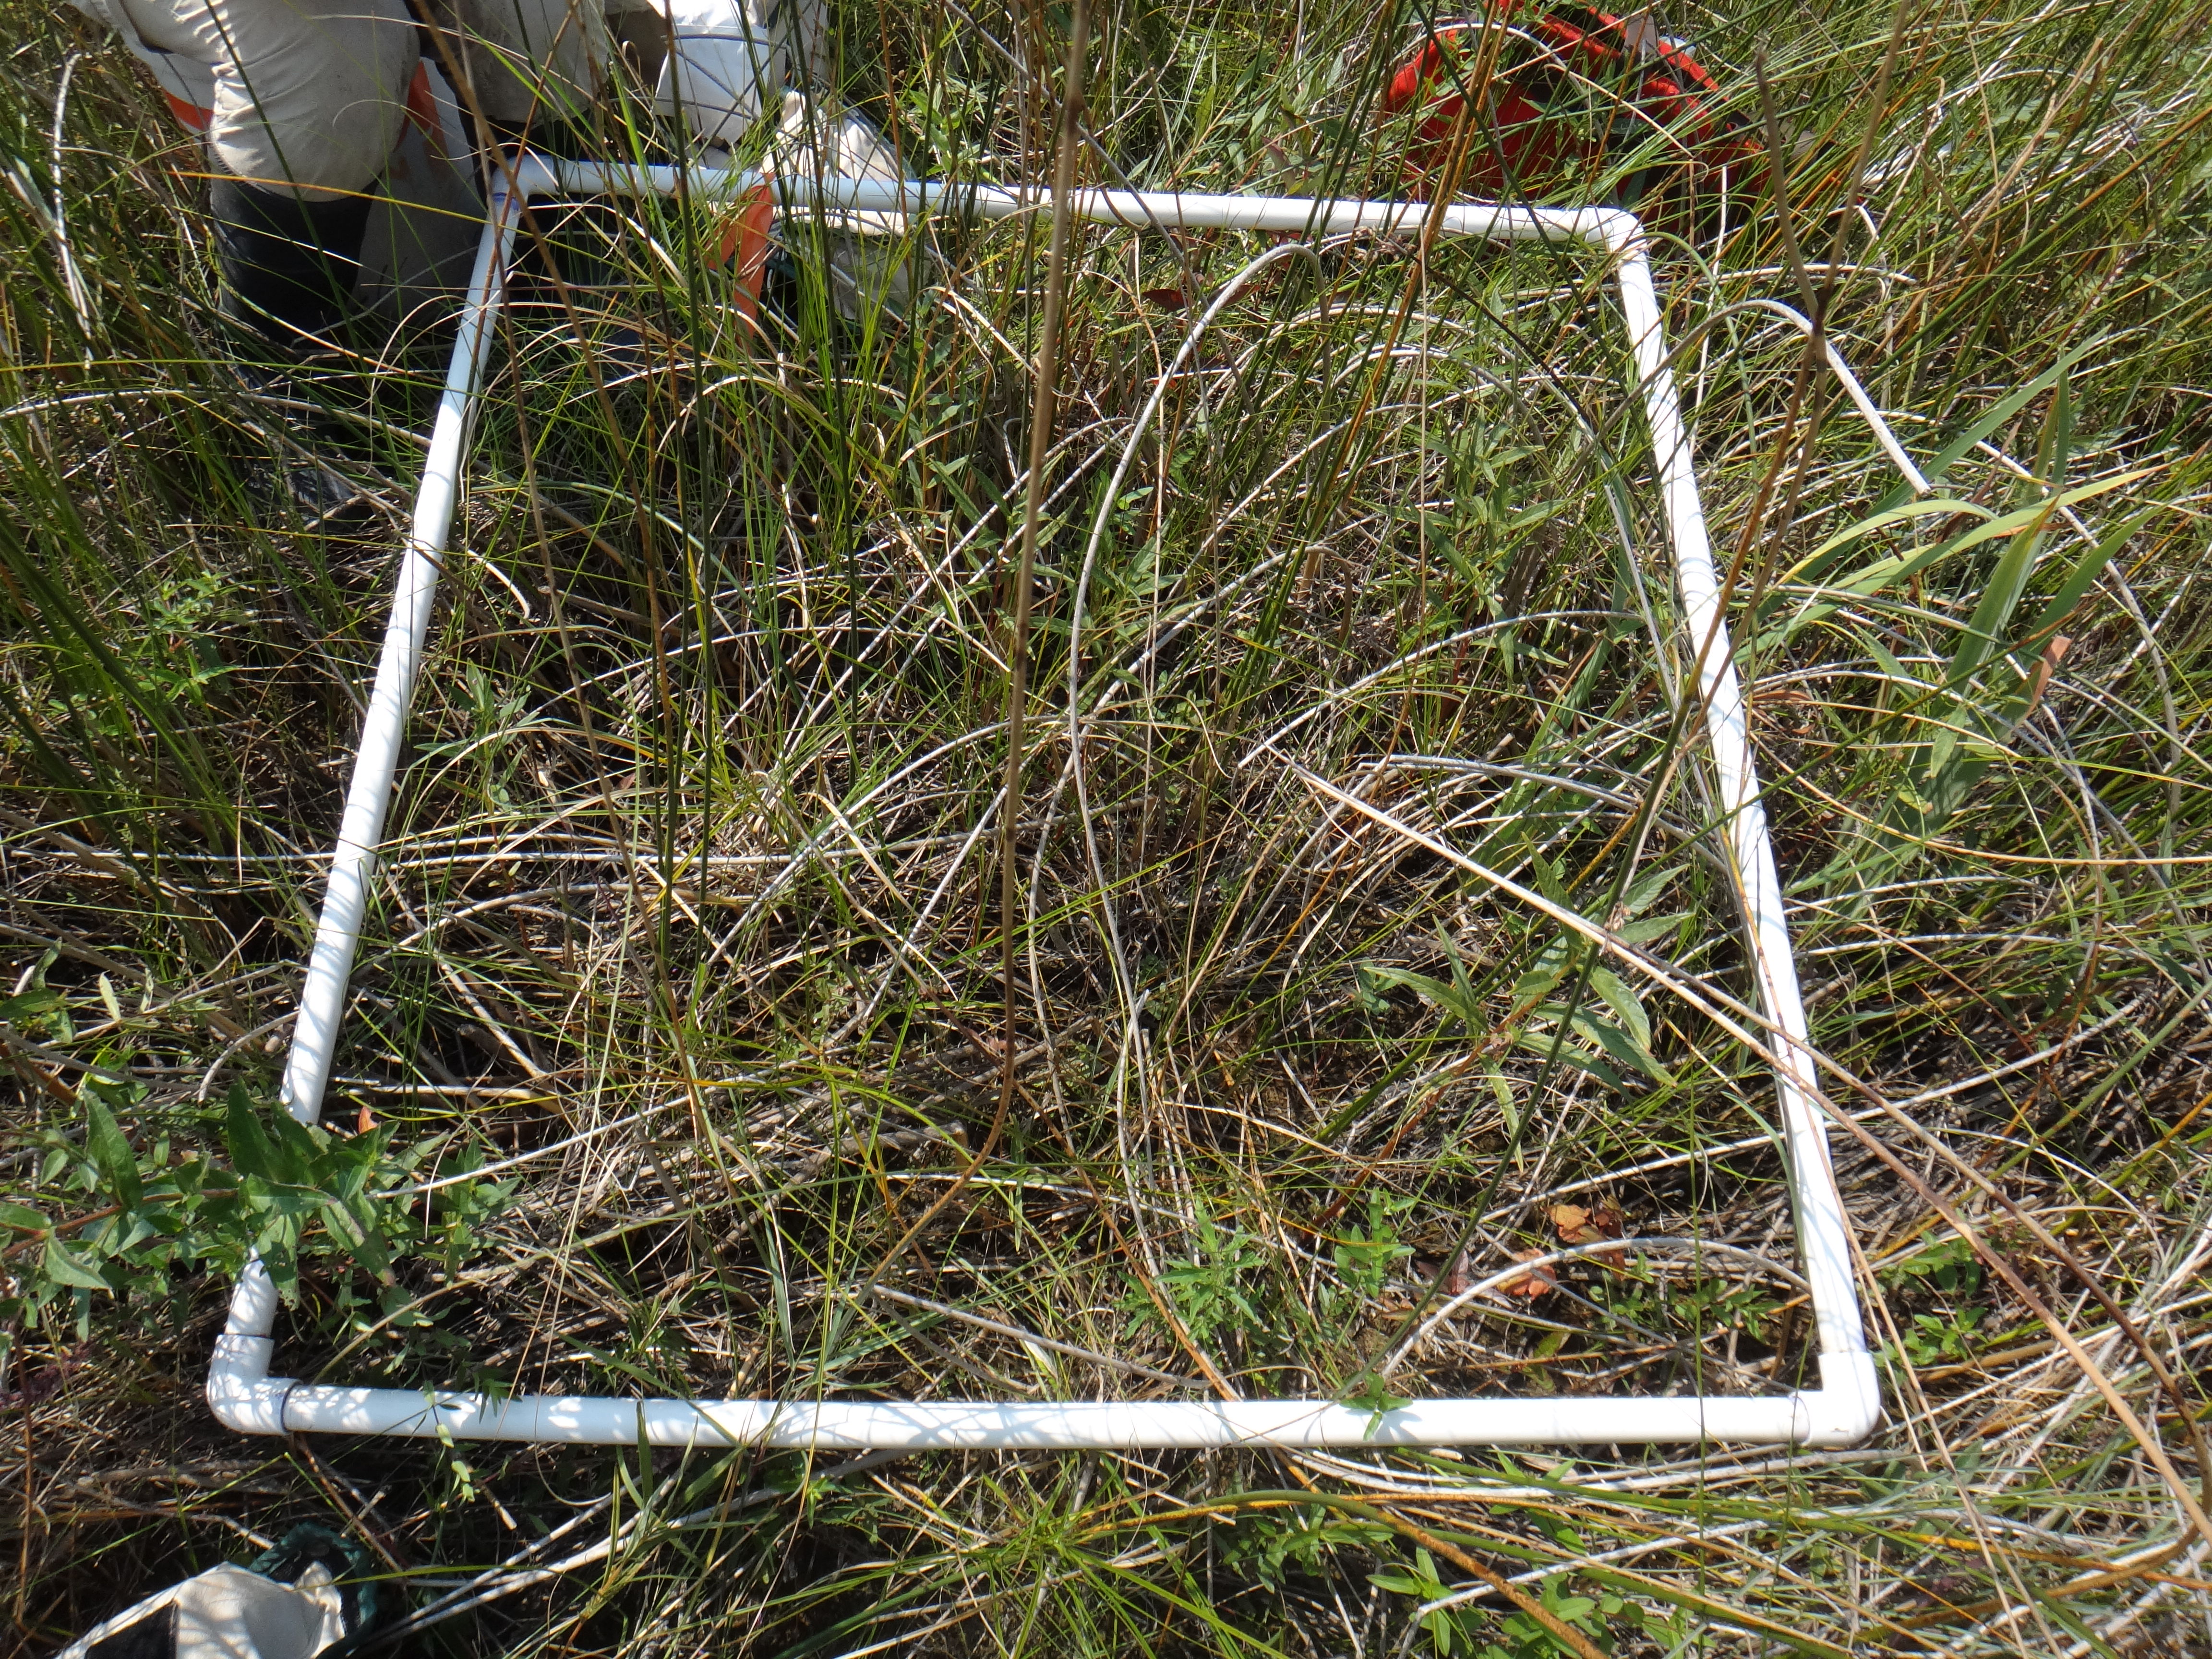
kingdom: Plantae
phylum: Tracheophyta
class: Magnoliopsida
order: Malpighiales
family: Hypericaceae
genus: Triadenum
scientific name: Triadenum fraseri
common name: Fraser's marsh st. johnswort
